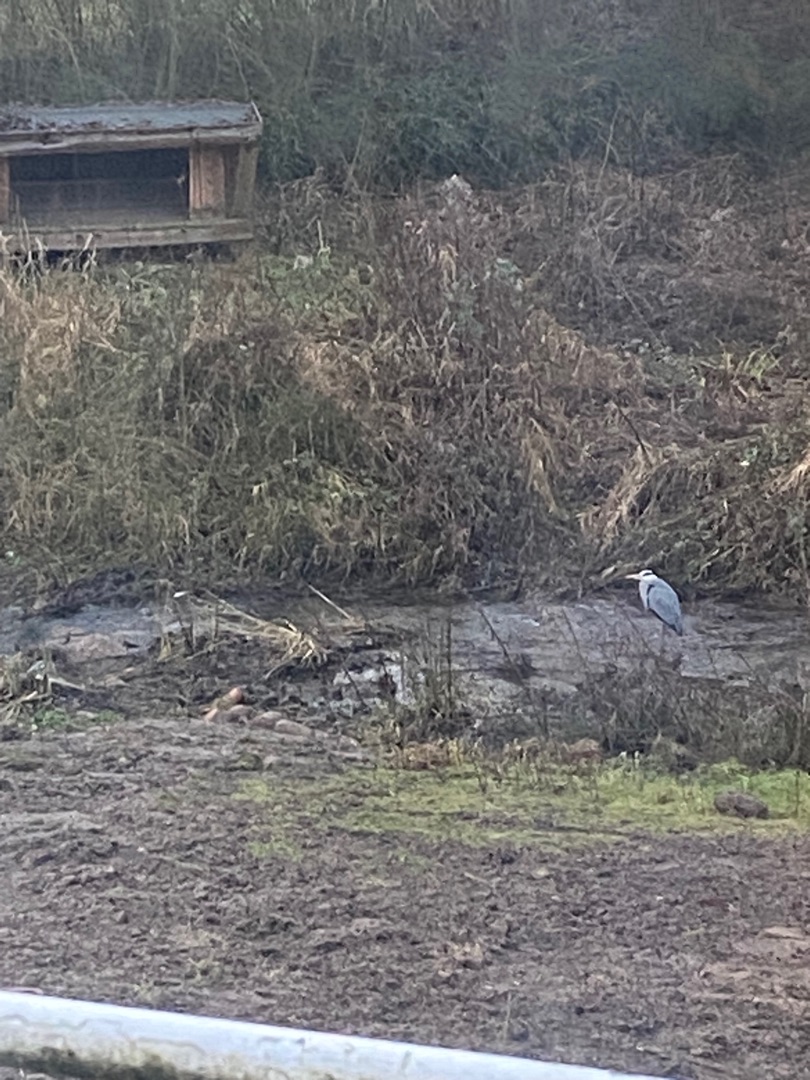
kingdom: Animalia
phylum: Chordata
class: Aves
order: Pelecaniformes
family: Ardeidae
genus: Ardea
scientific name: Ardea cinerea
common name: Fiskehejre
